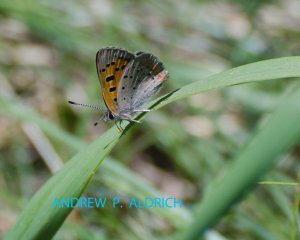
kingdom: Animalia
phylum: Arthropoda
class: Insecta
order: Lepidoptera
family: Lycaenidae
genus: Lycaena
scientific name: Lycaena phlaeas
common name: American Copper
